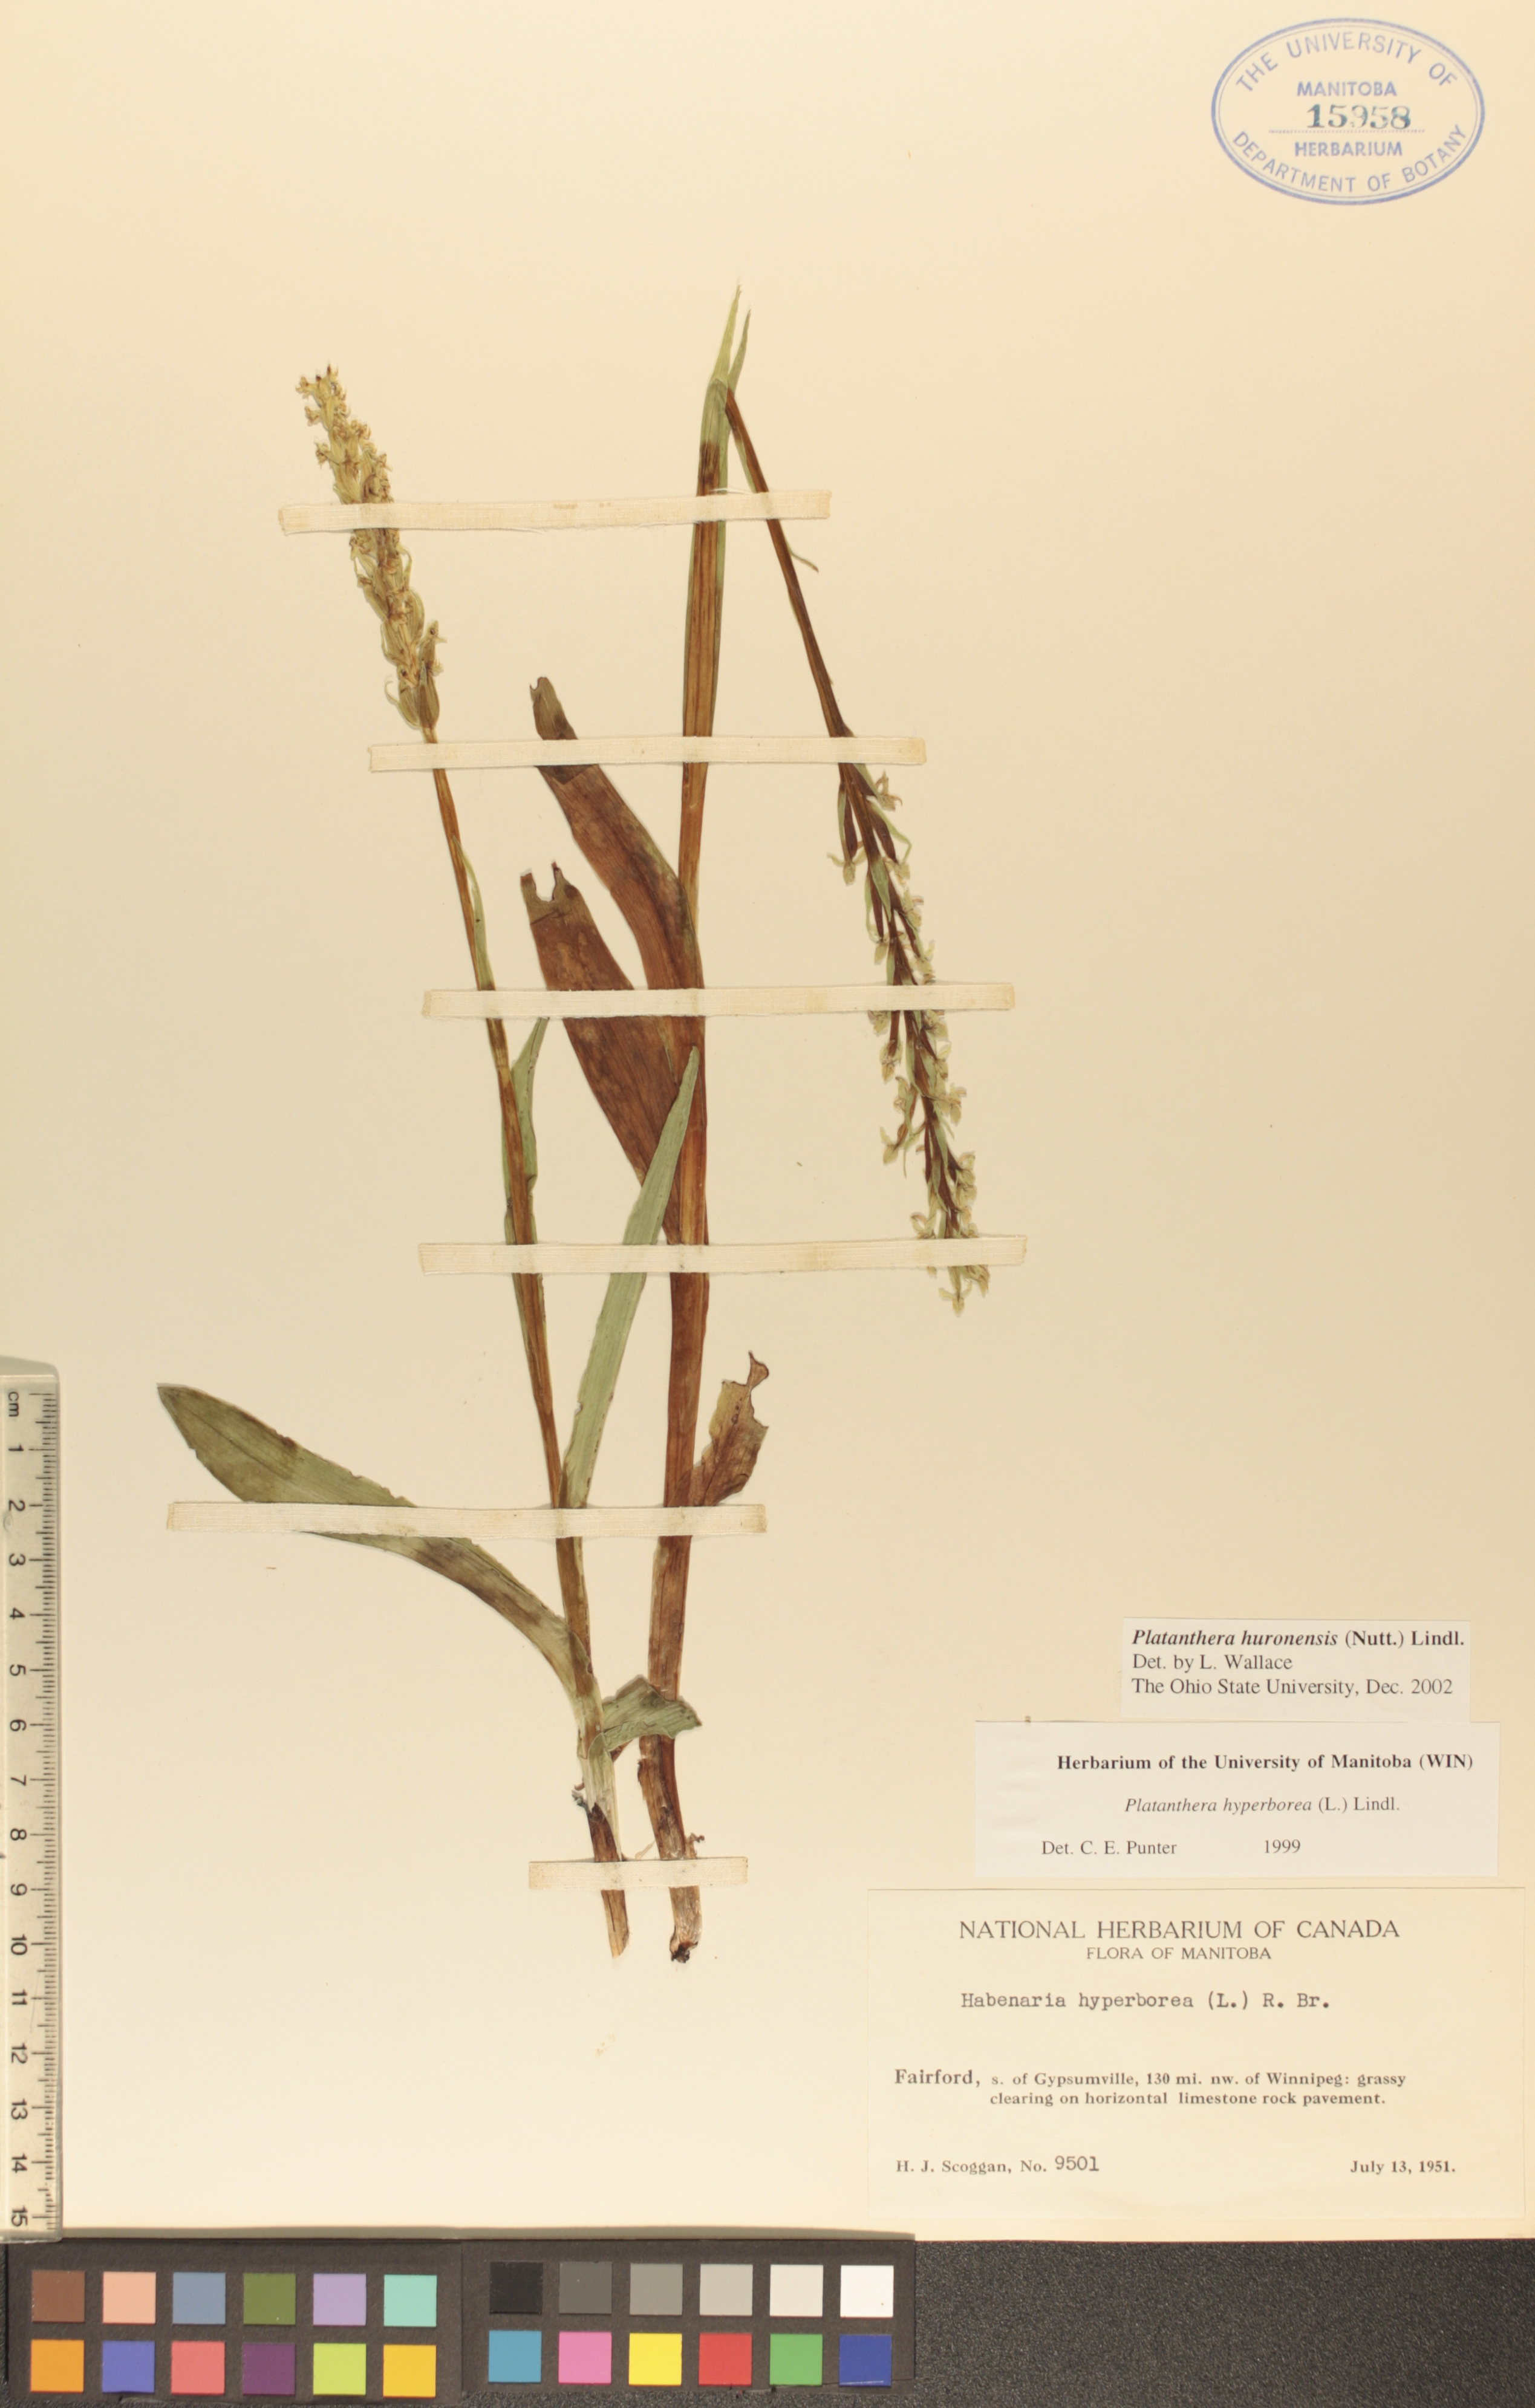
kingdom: Plantae
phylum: Tracheophyta
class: Liliopsida
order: Asparagales
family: Orchidaceae
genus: Platanthera
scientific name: Platanthera huronensis
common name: Fragrant green orchid
